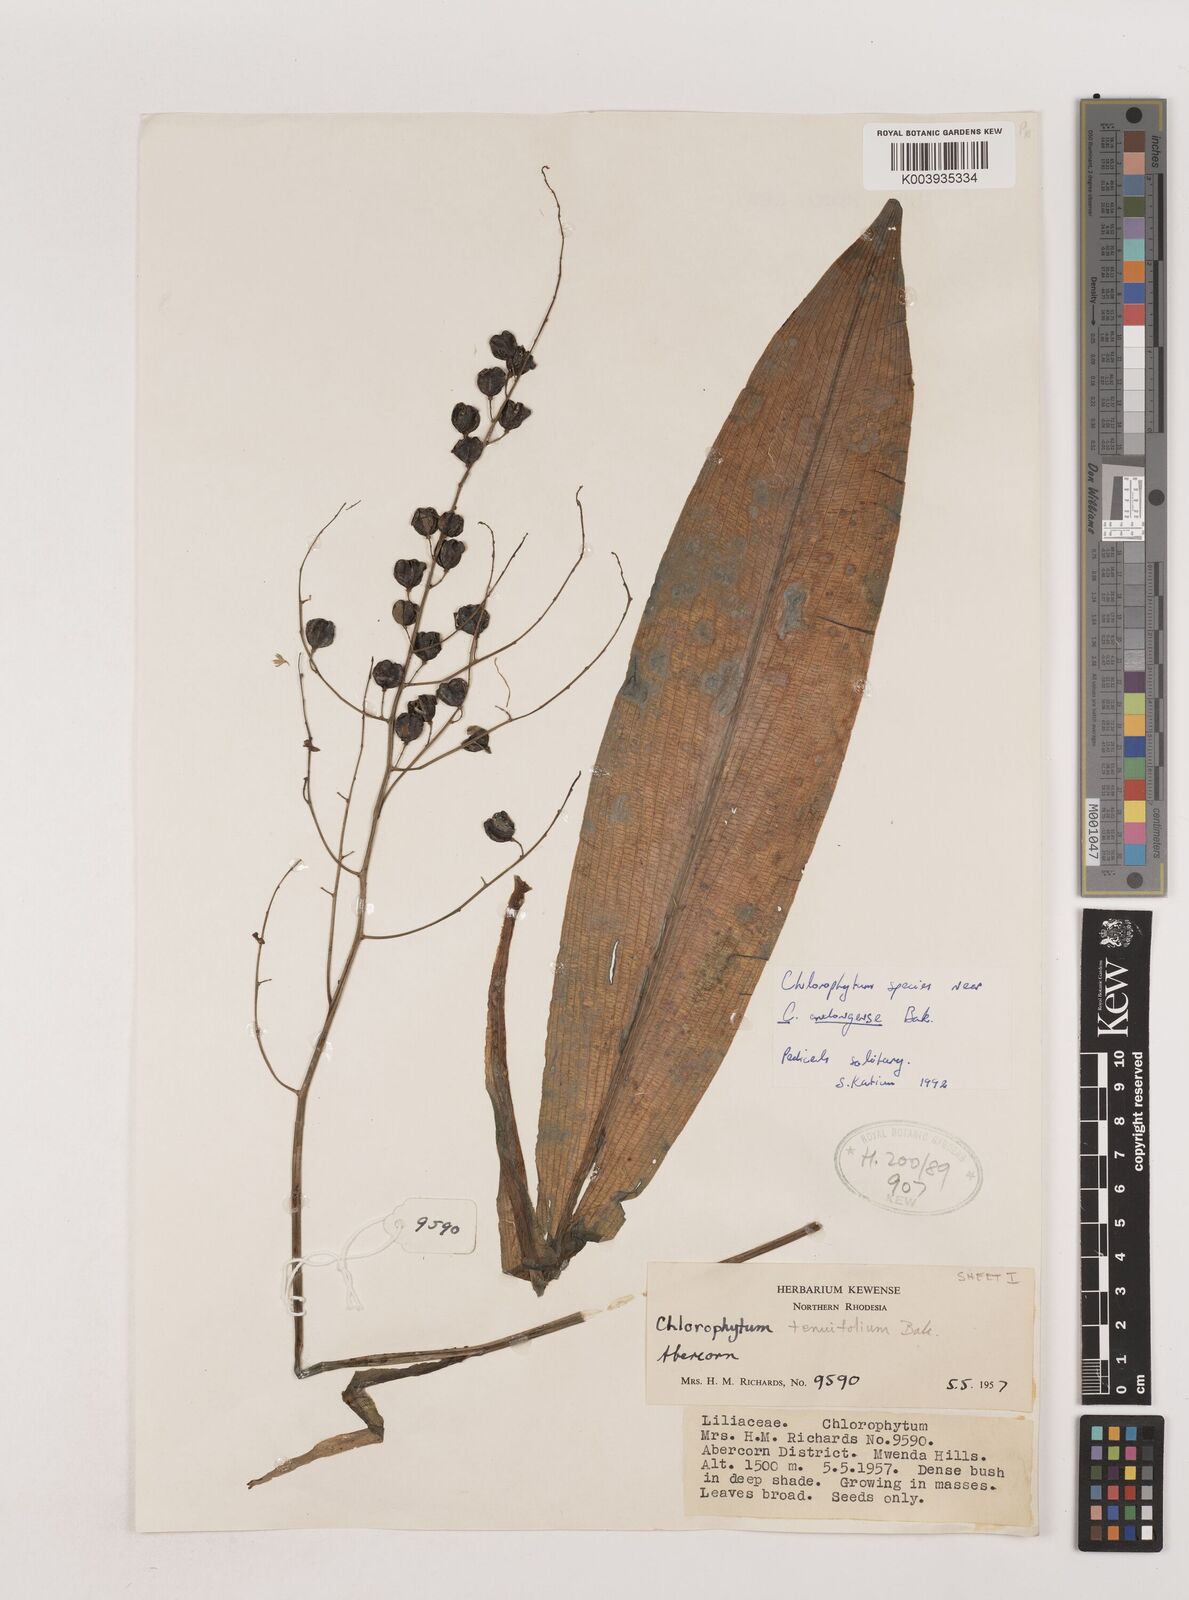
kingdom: Plantae
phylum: Tracheophyta
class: Liliopsida
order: Asparagales
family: Asparagaceae
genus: Chlorophytum
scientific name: Chlorophytum andongense
